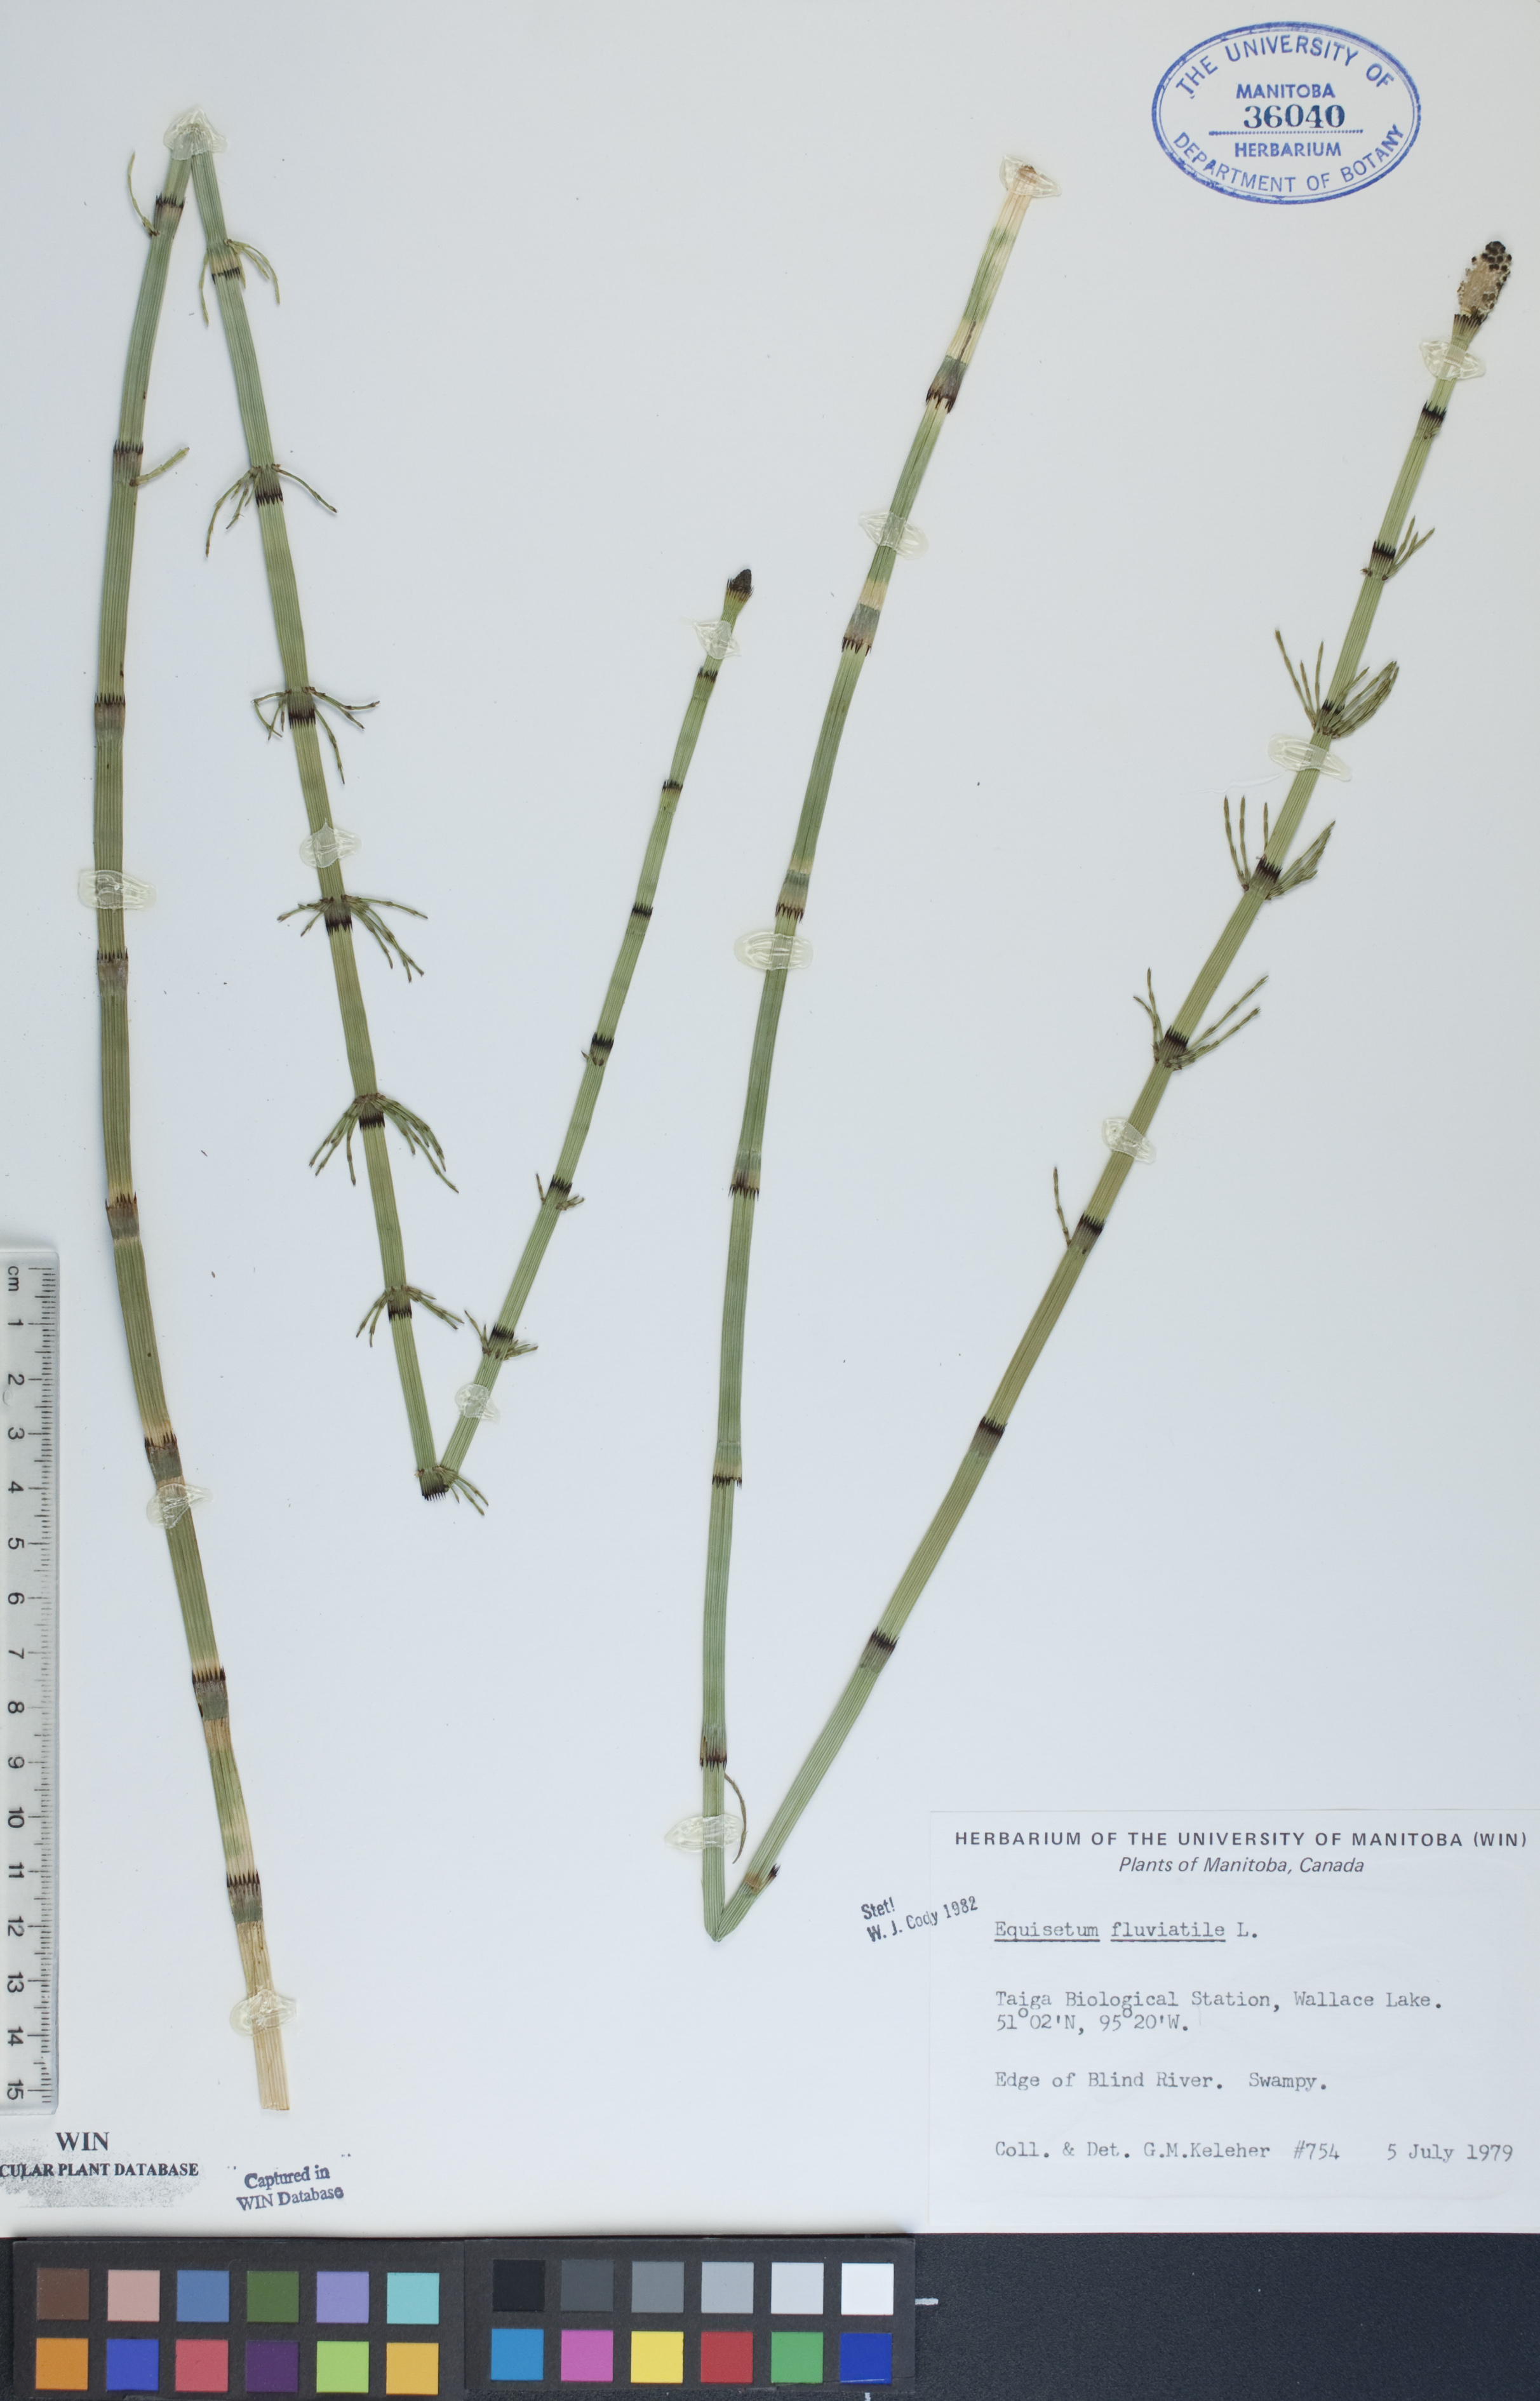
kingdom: Plantae
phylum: Tracheophyta
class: Polypodiopsida
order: Equisetales
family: Equisetaceae
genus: Equisetum
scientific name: Equisetum fluviatile
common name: Water horsetail
